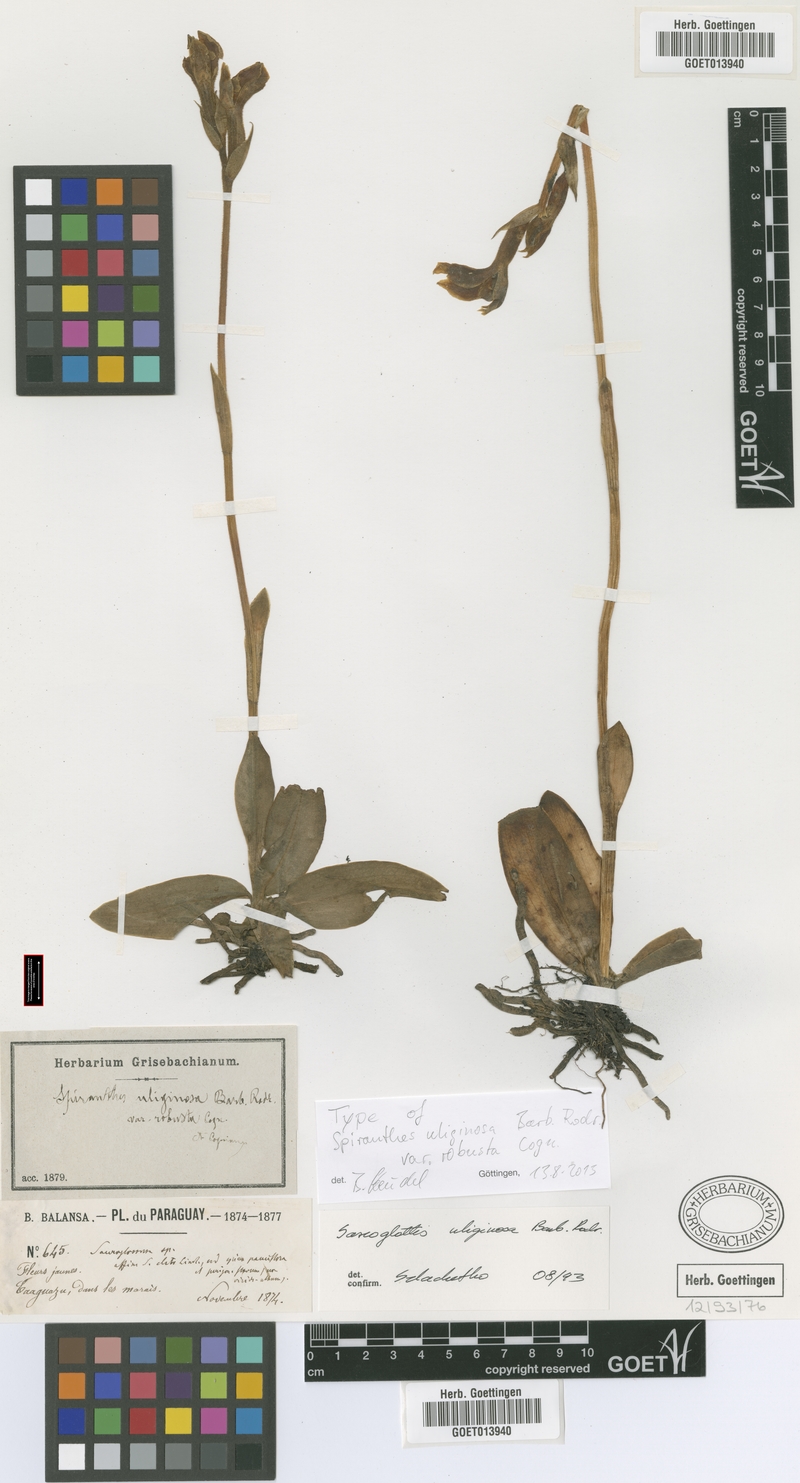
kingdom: Plantae
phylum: Tracheophyta
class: Liliopsida
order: Asparagales
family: Orchidaceae
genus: Sarcoglottis
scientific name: Sarcoglottis uliginosa
